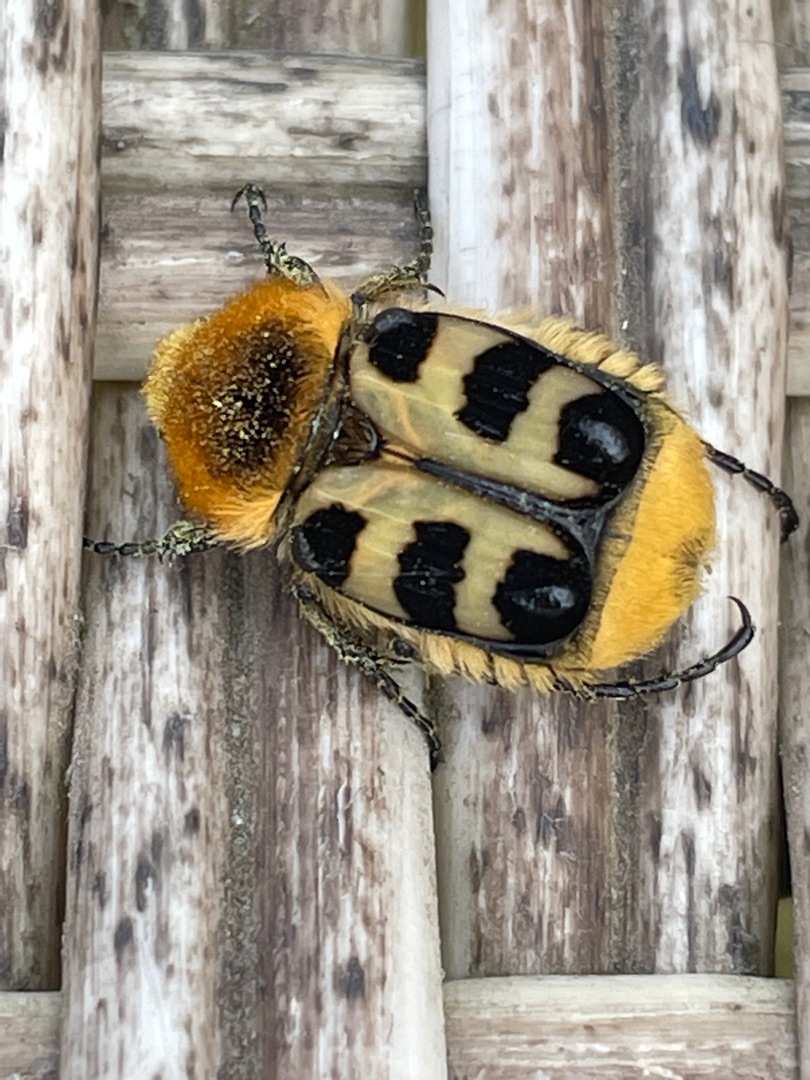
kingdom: Animalia
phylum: Arthropoda
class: Insecta
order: Coleoptera
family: Scarabaeidae
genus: Trichius
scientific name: Trichius gallicus
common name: Lille humlebille
